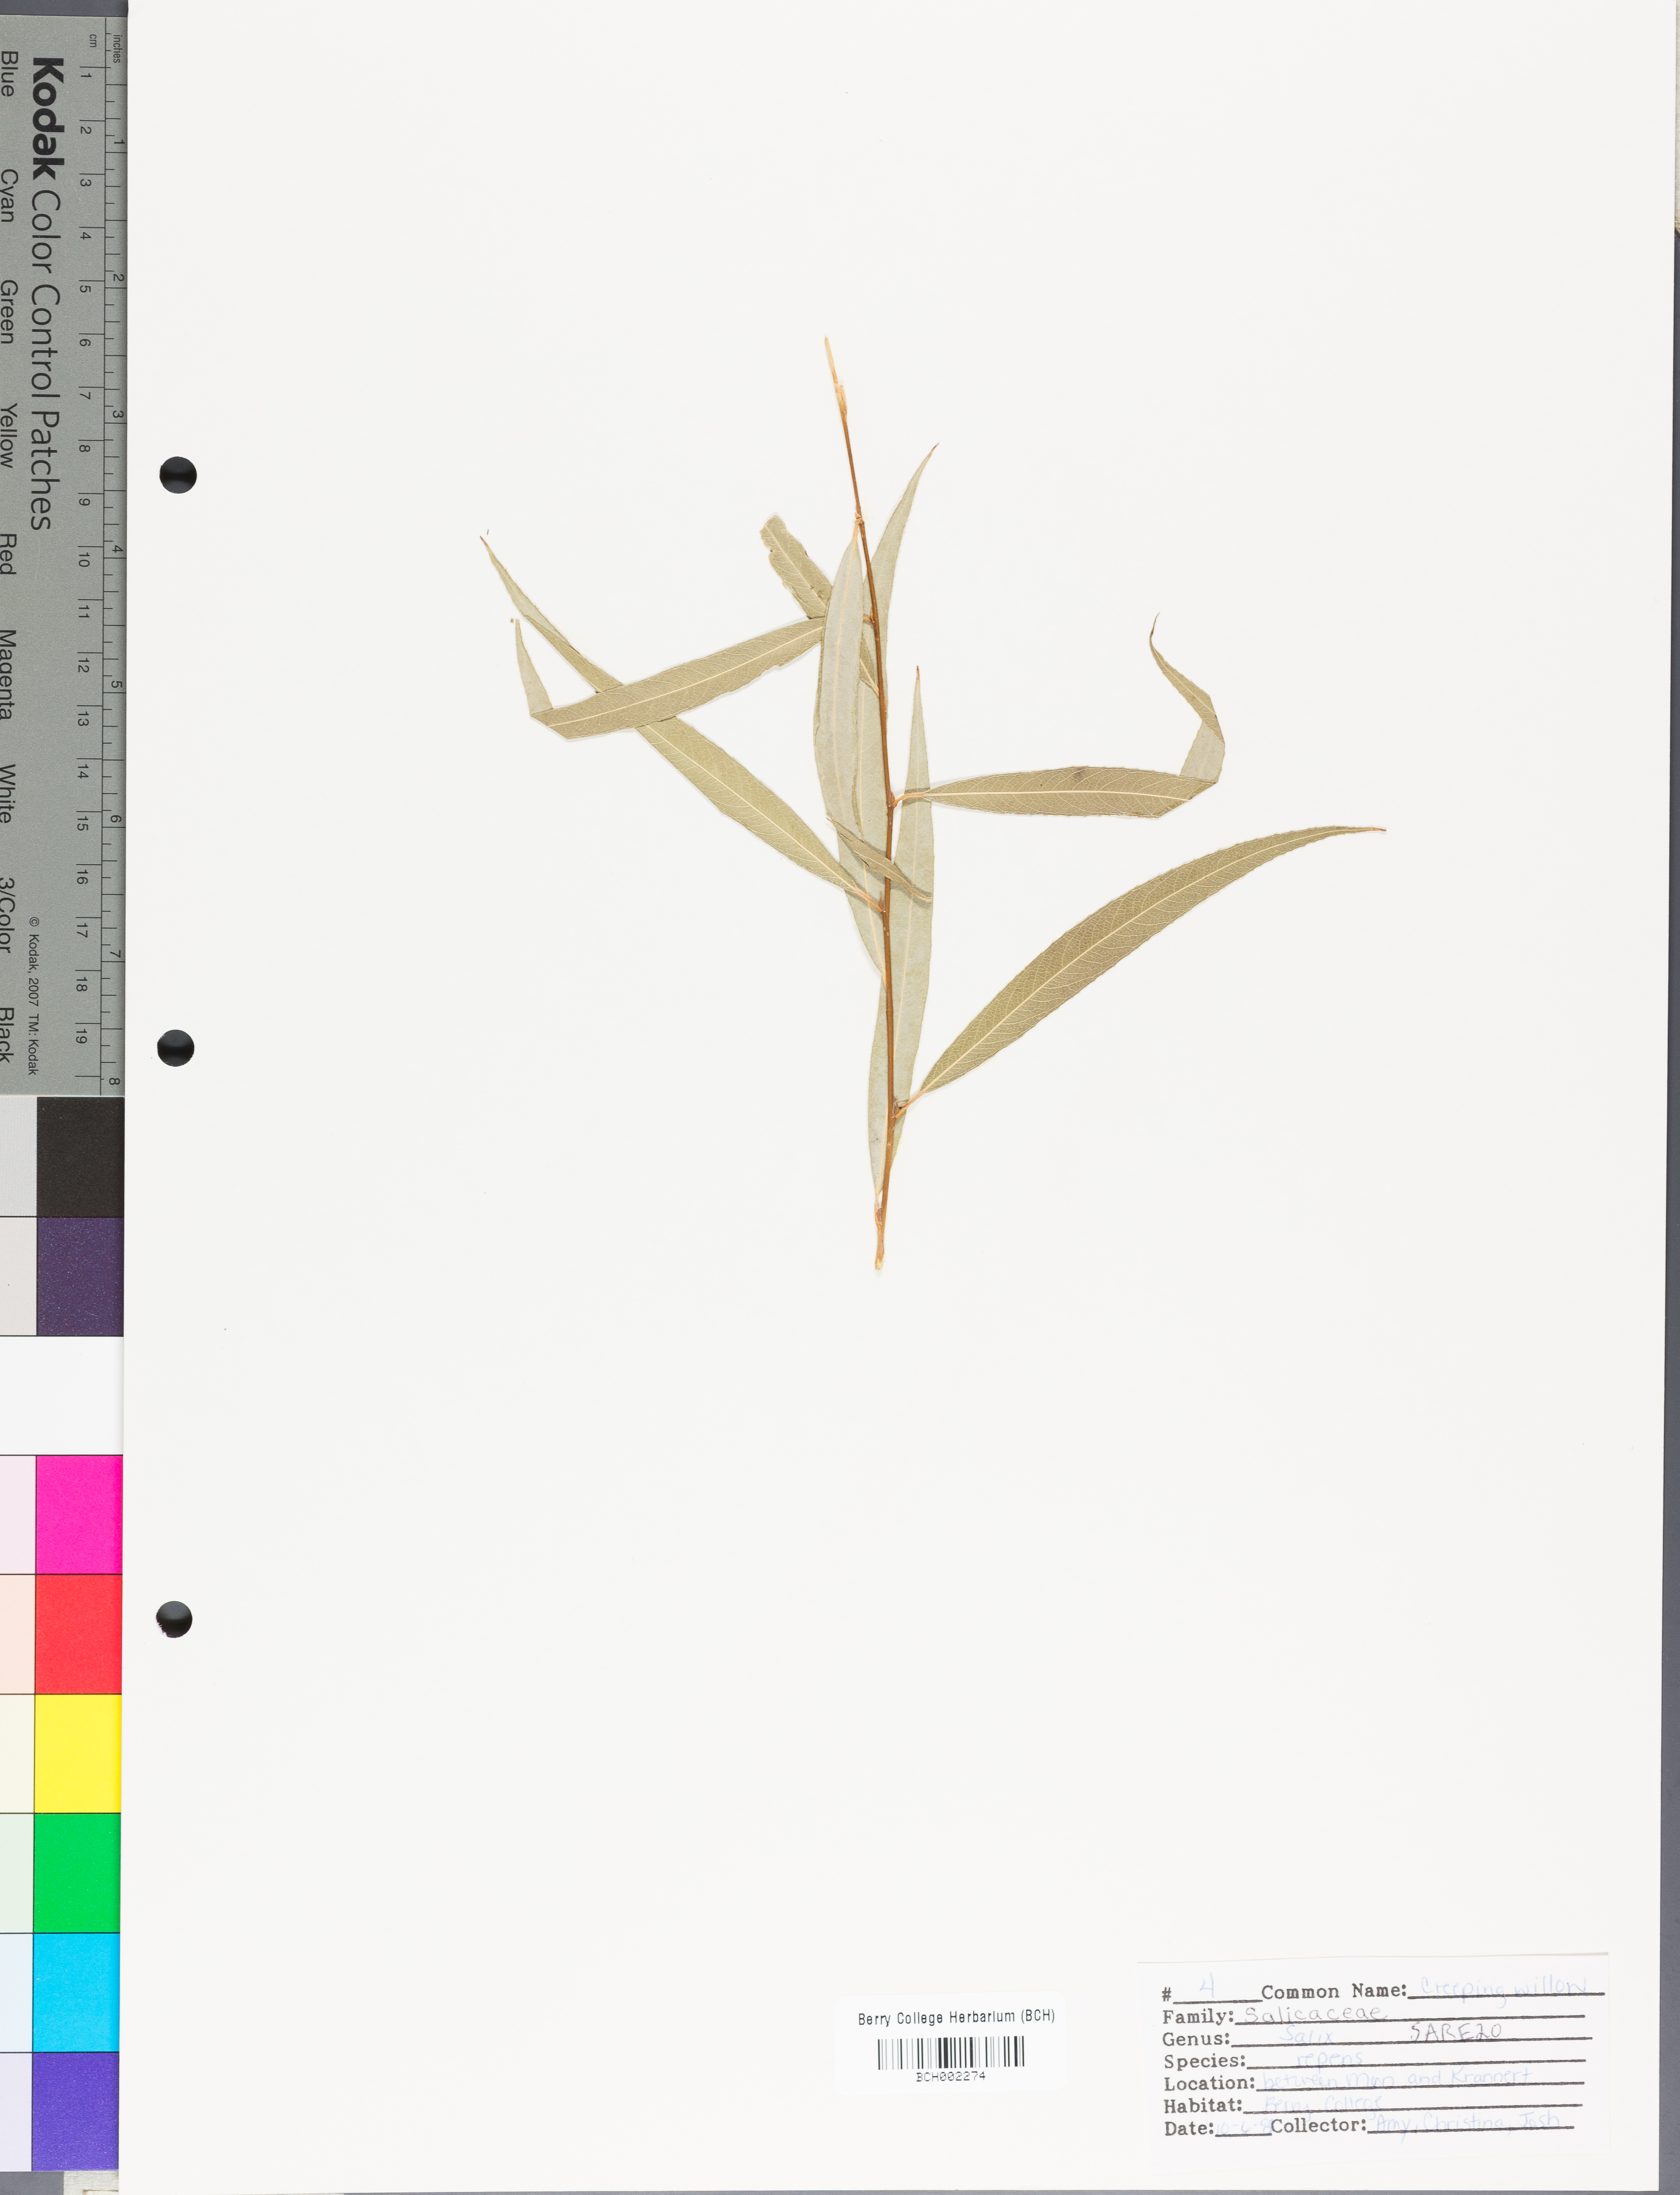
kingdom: Plantae
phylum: Tracheophyta
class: Magnoliopsida
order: Malpighiales
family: Salicaceae
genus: Salix
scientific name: Salix repens
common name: Creeping willow
